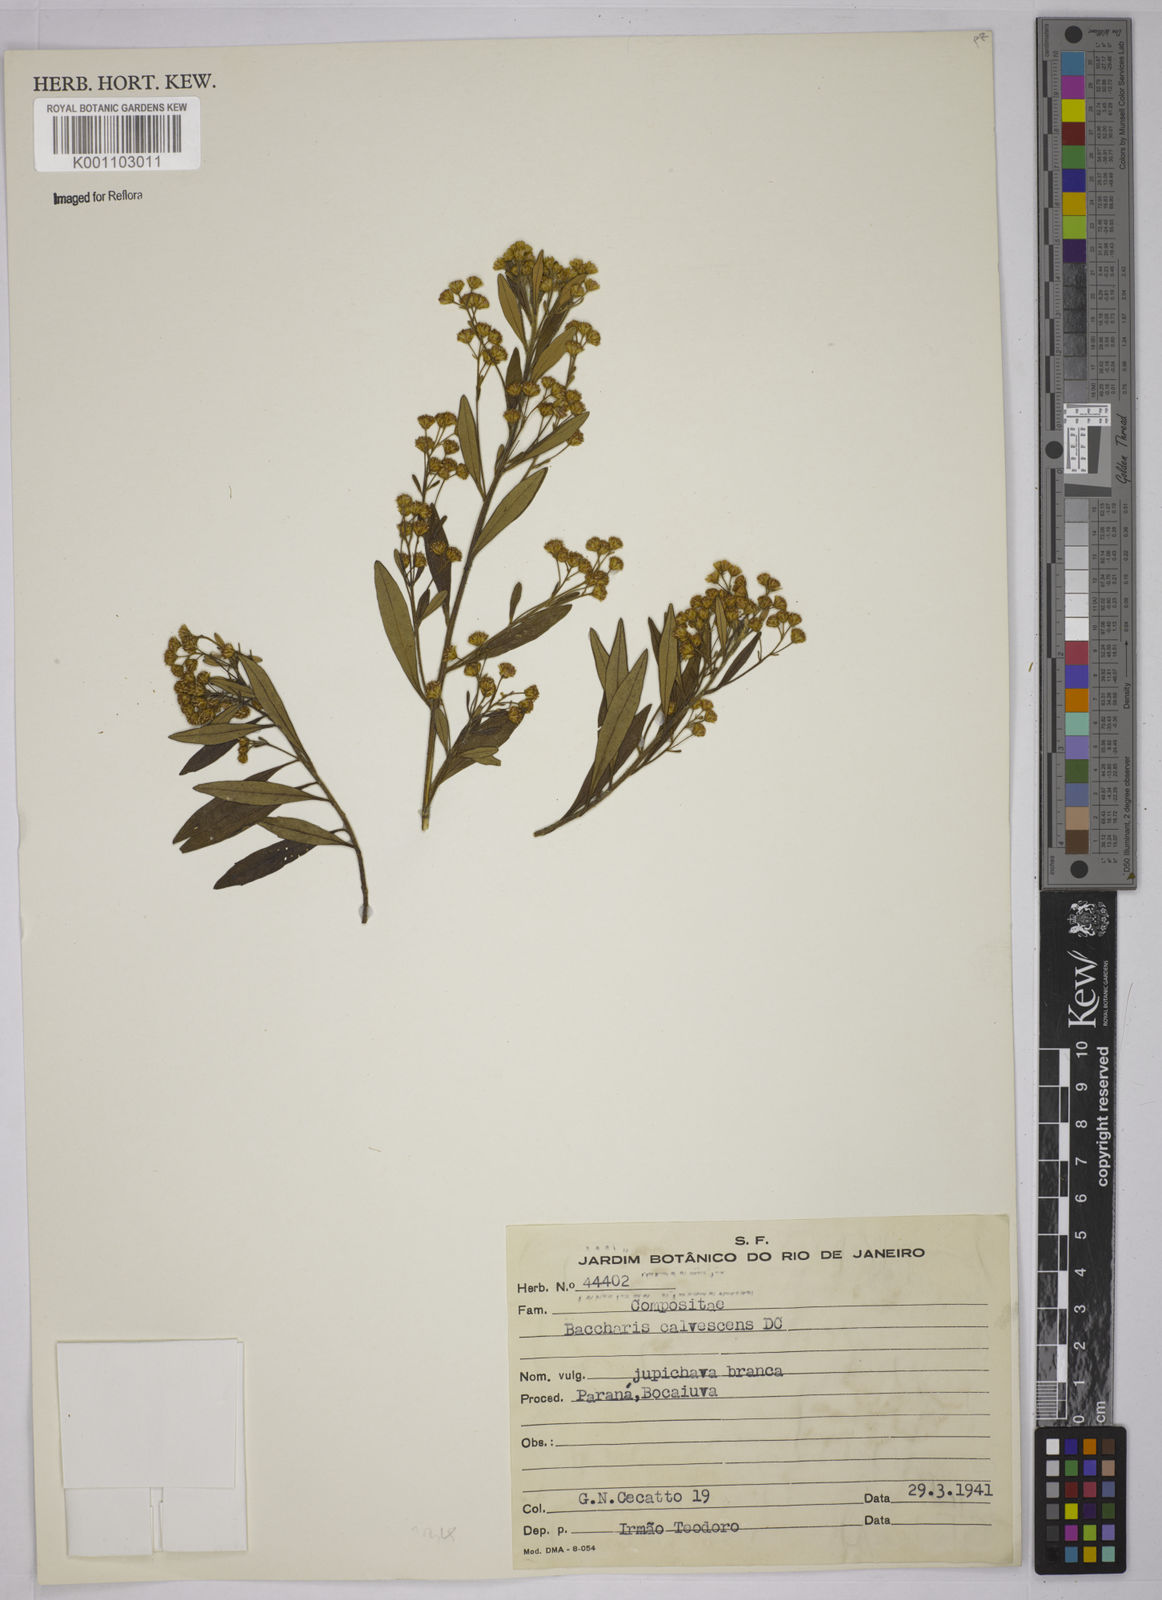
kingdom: Plantae
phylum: Tracheophyta
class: Magnoliopsida
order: Asterales
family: Asteraceae
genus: Baccharis
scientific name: Baccharis calvescens
